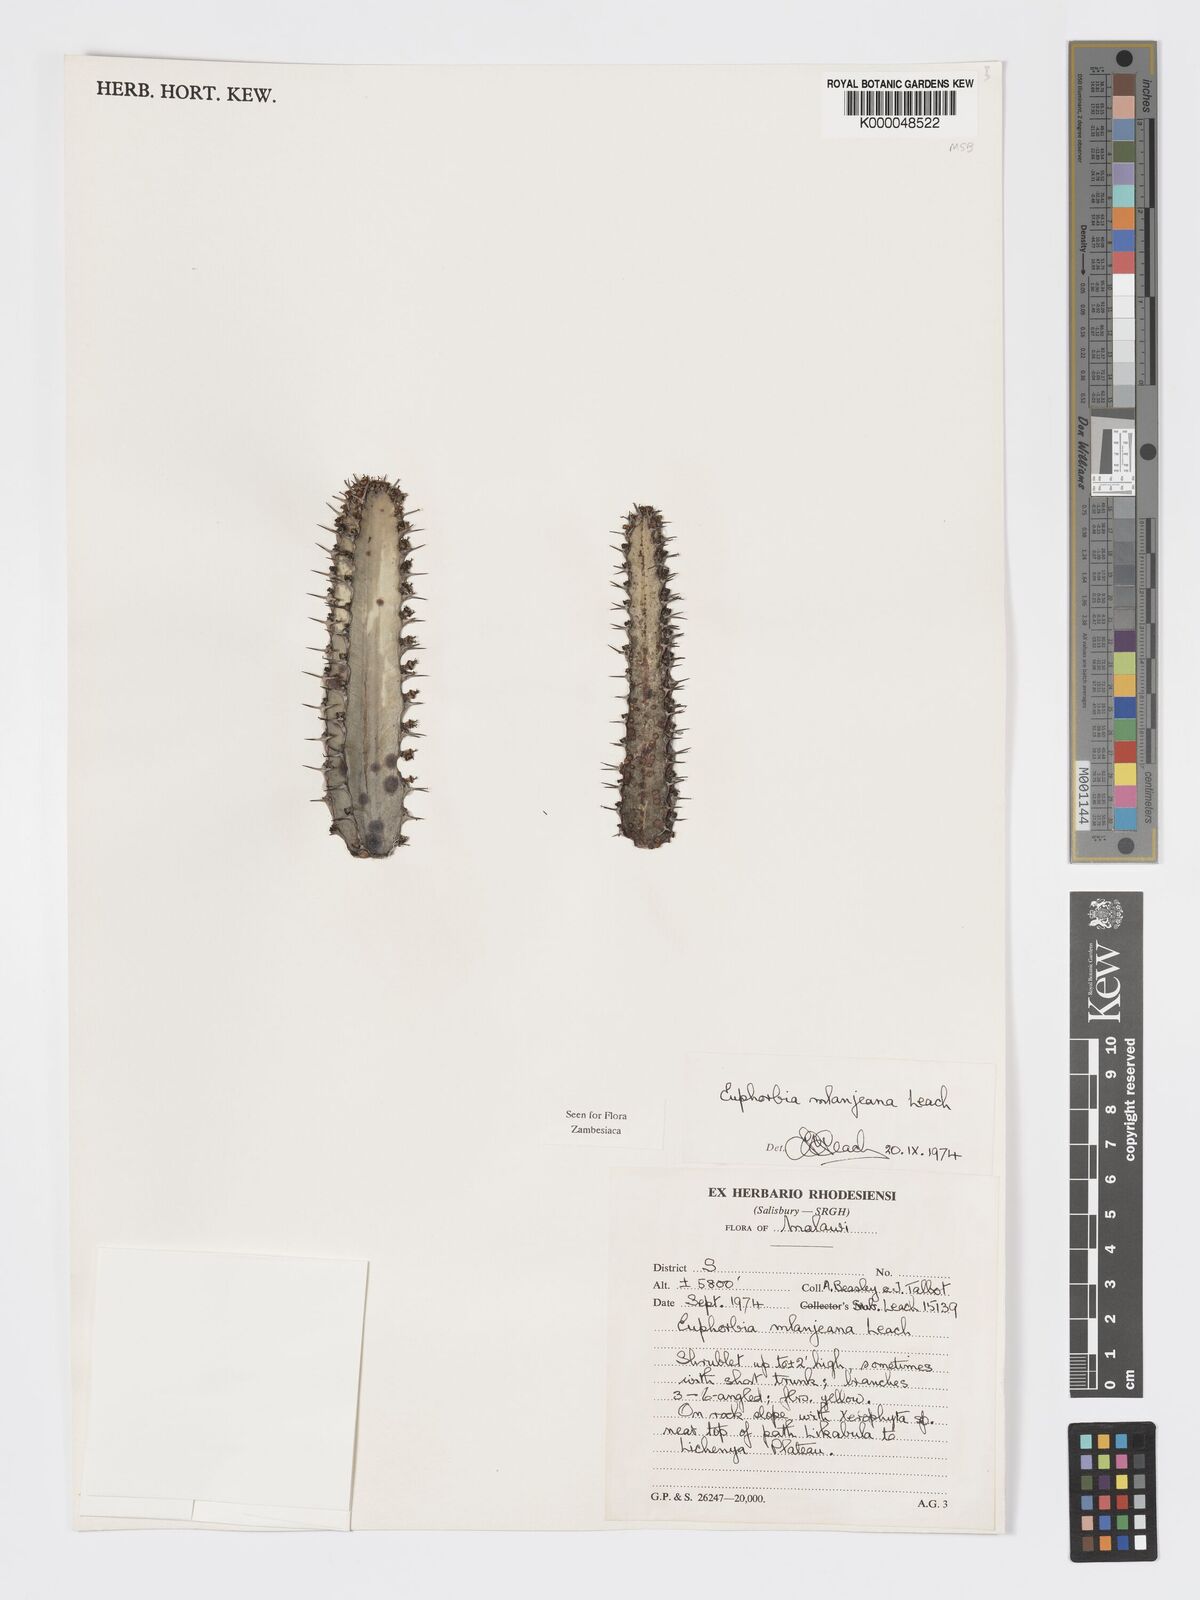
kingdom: Plantae
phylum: Tracheophyta
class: Magnoliopsida
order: Malpighiales
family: Euphorbiaceae
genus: Euphorbia
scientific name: Euphorbia mlanjeana
